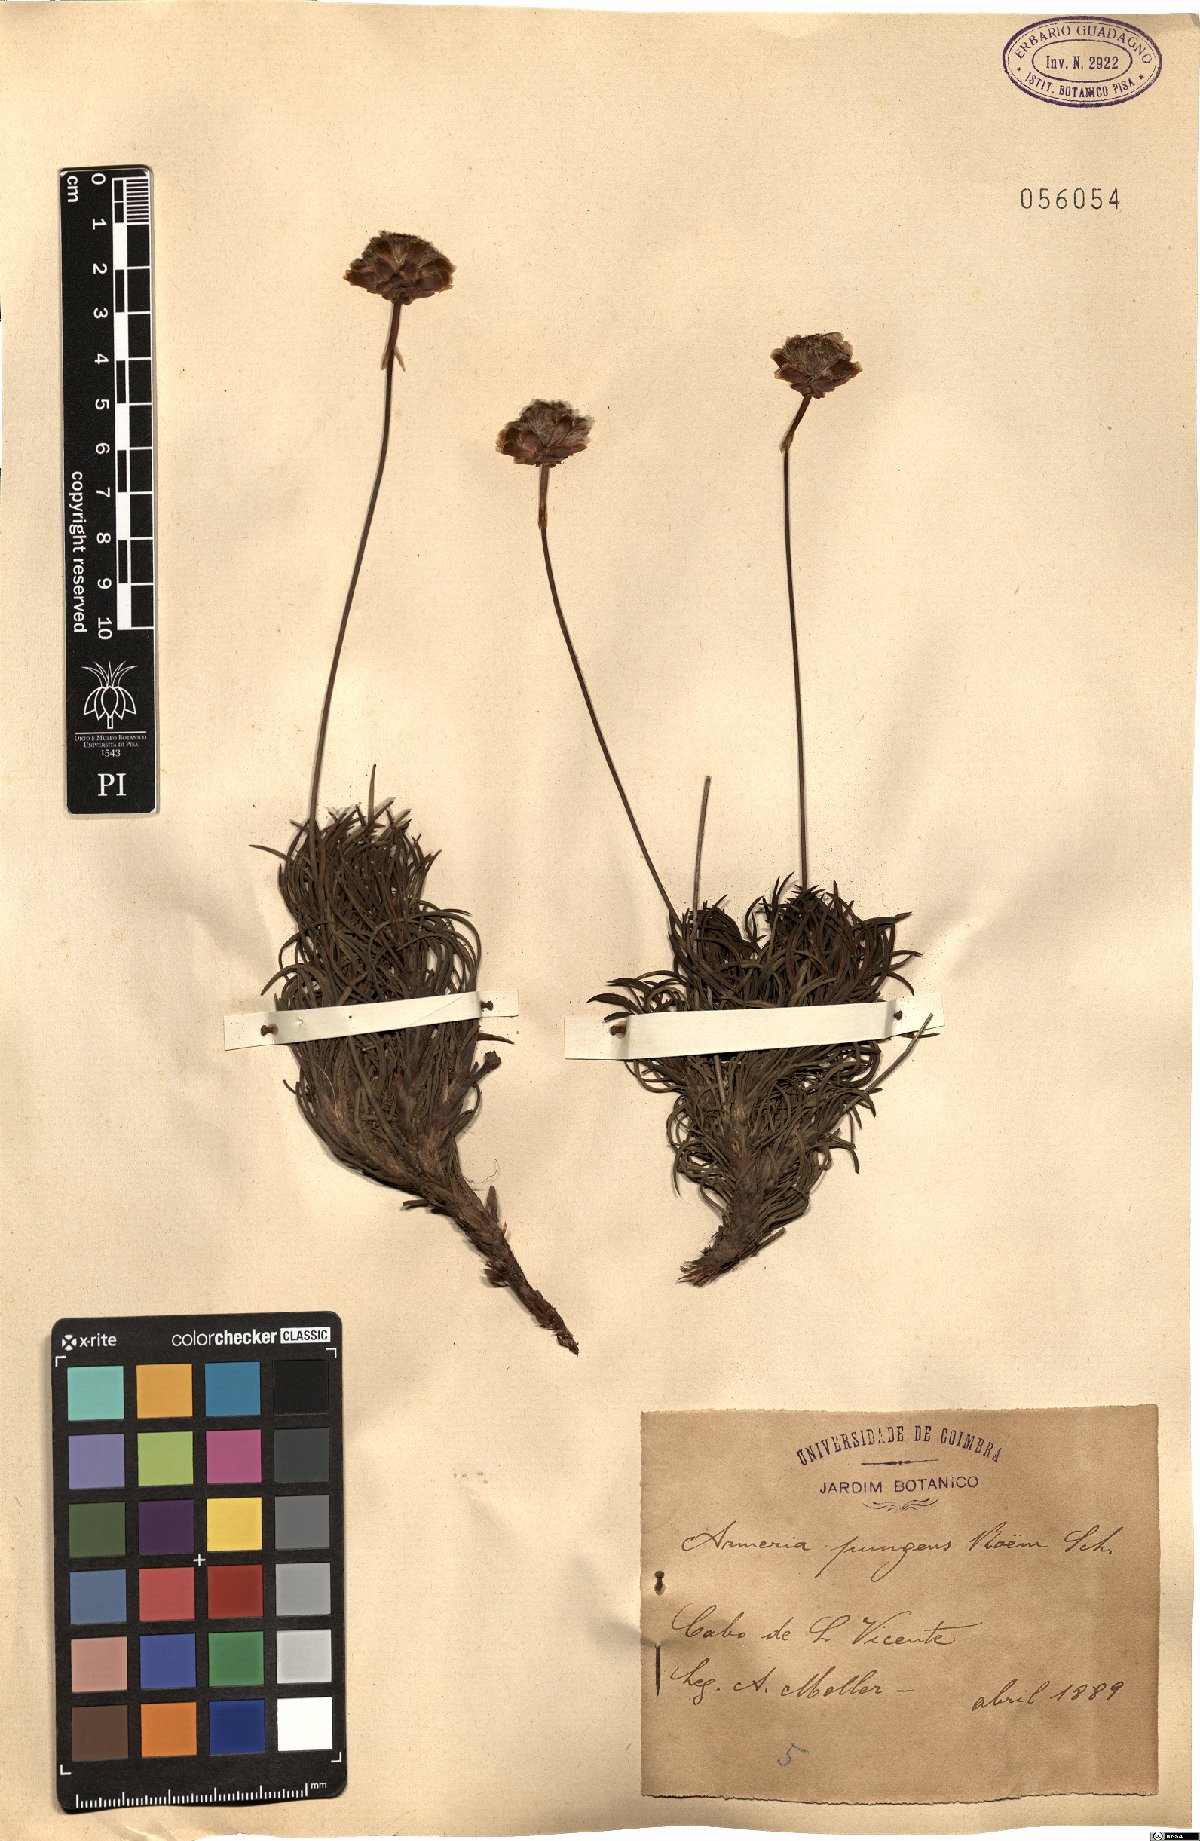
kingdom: Plantae
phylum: Tracheophyta
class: Magnoliopsida
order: Caryophyllales
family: Plumbaginaceae
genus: Armeria
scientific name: Armeria pungens
